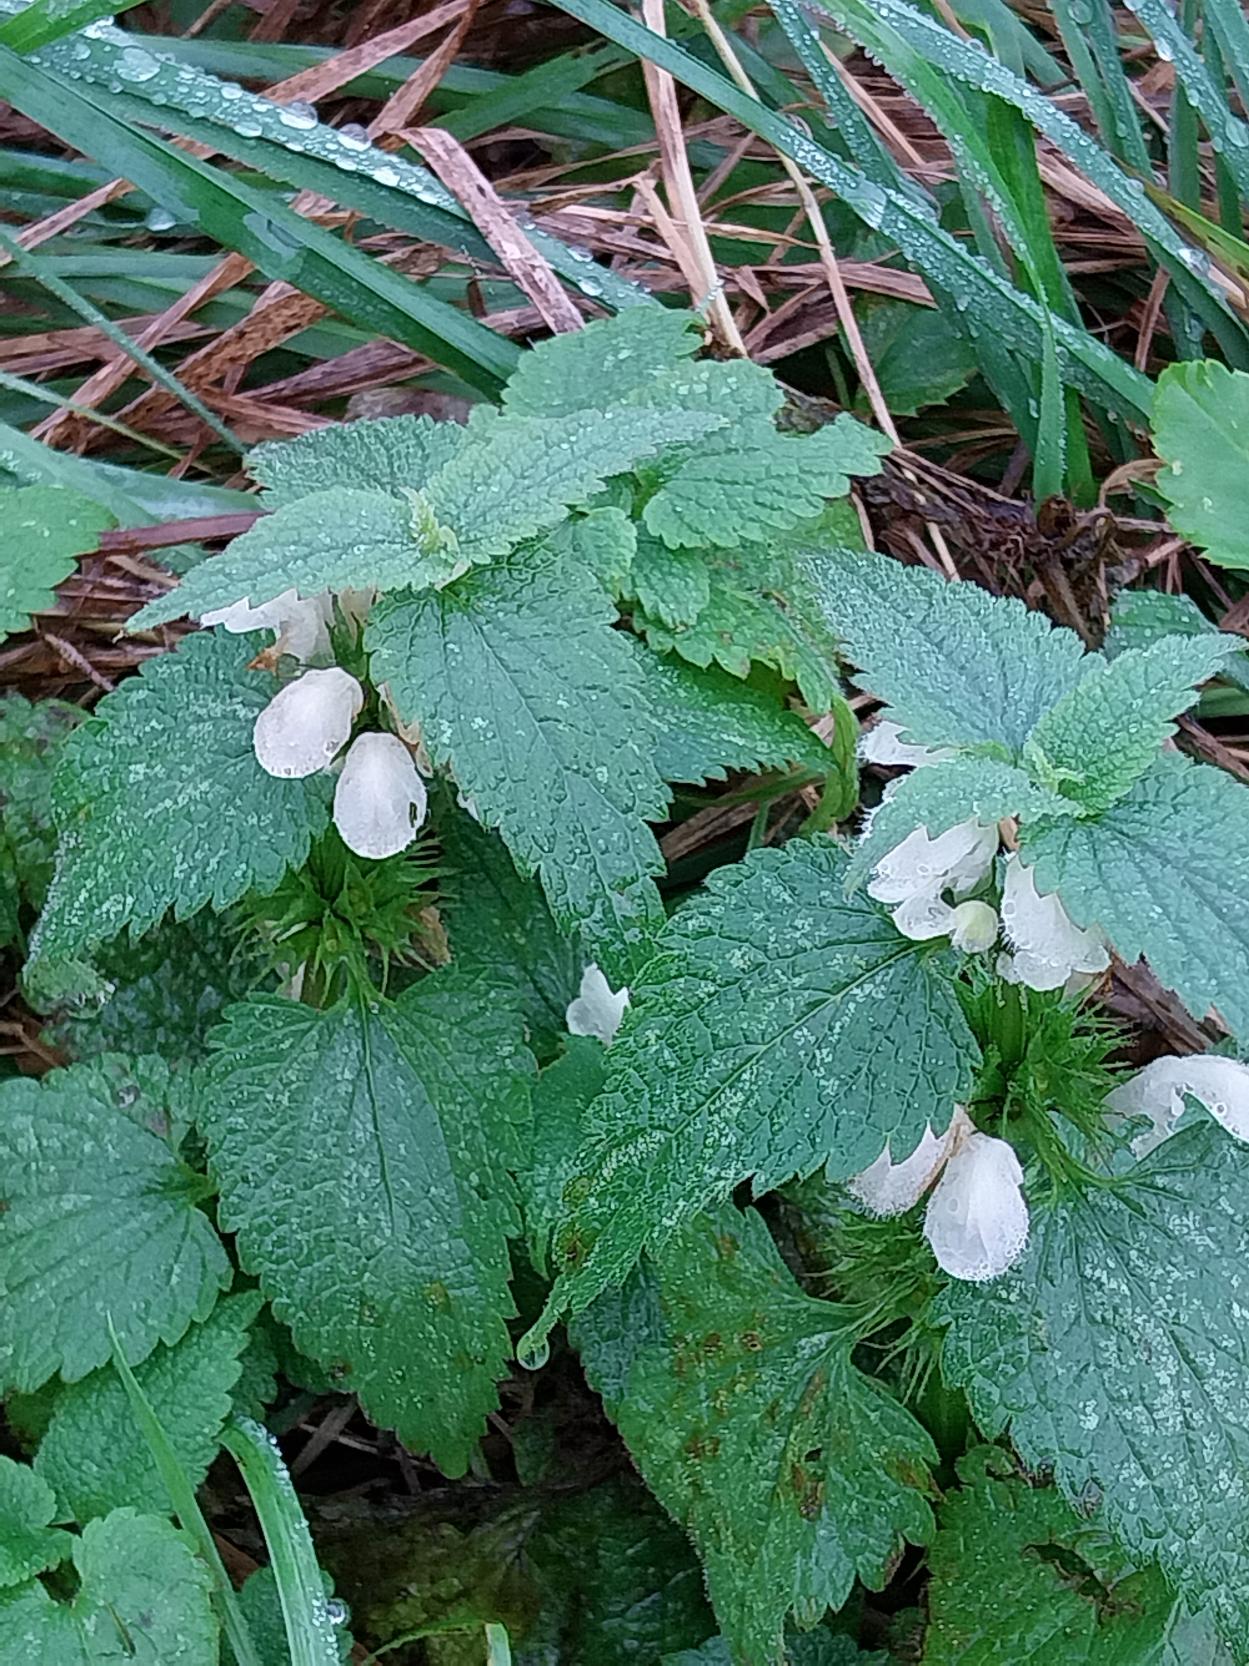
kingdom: Plantae
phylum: Tracheophyta
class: Magnoliopsida
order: Lamiales
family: Lamiaceae
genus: Lamium
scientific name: Lamium album
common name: Døvnælde
